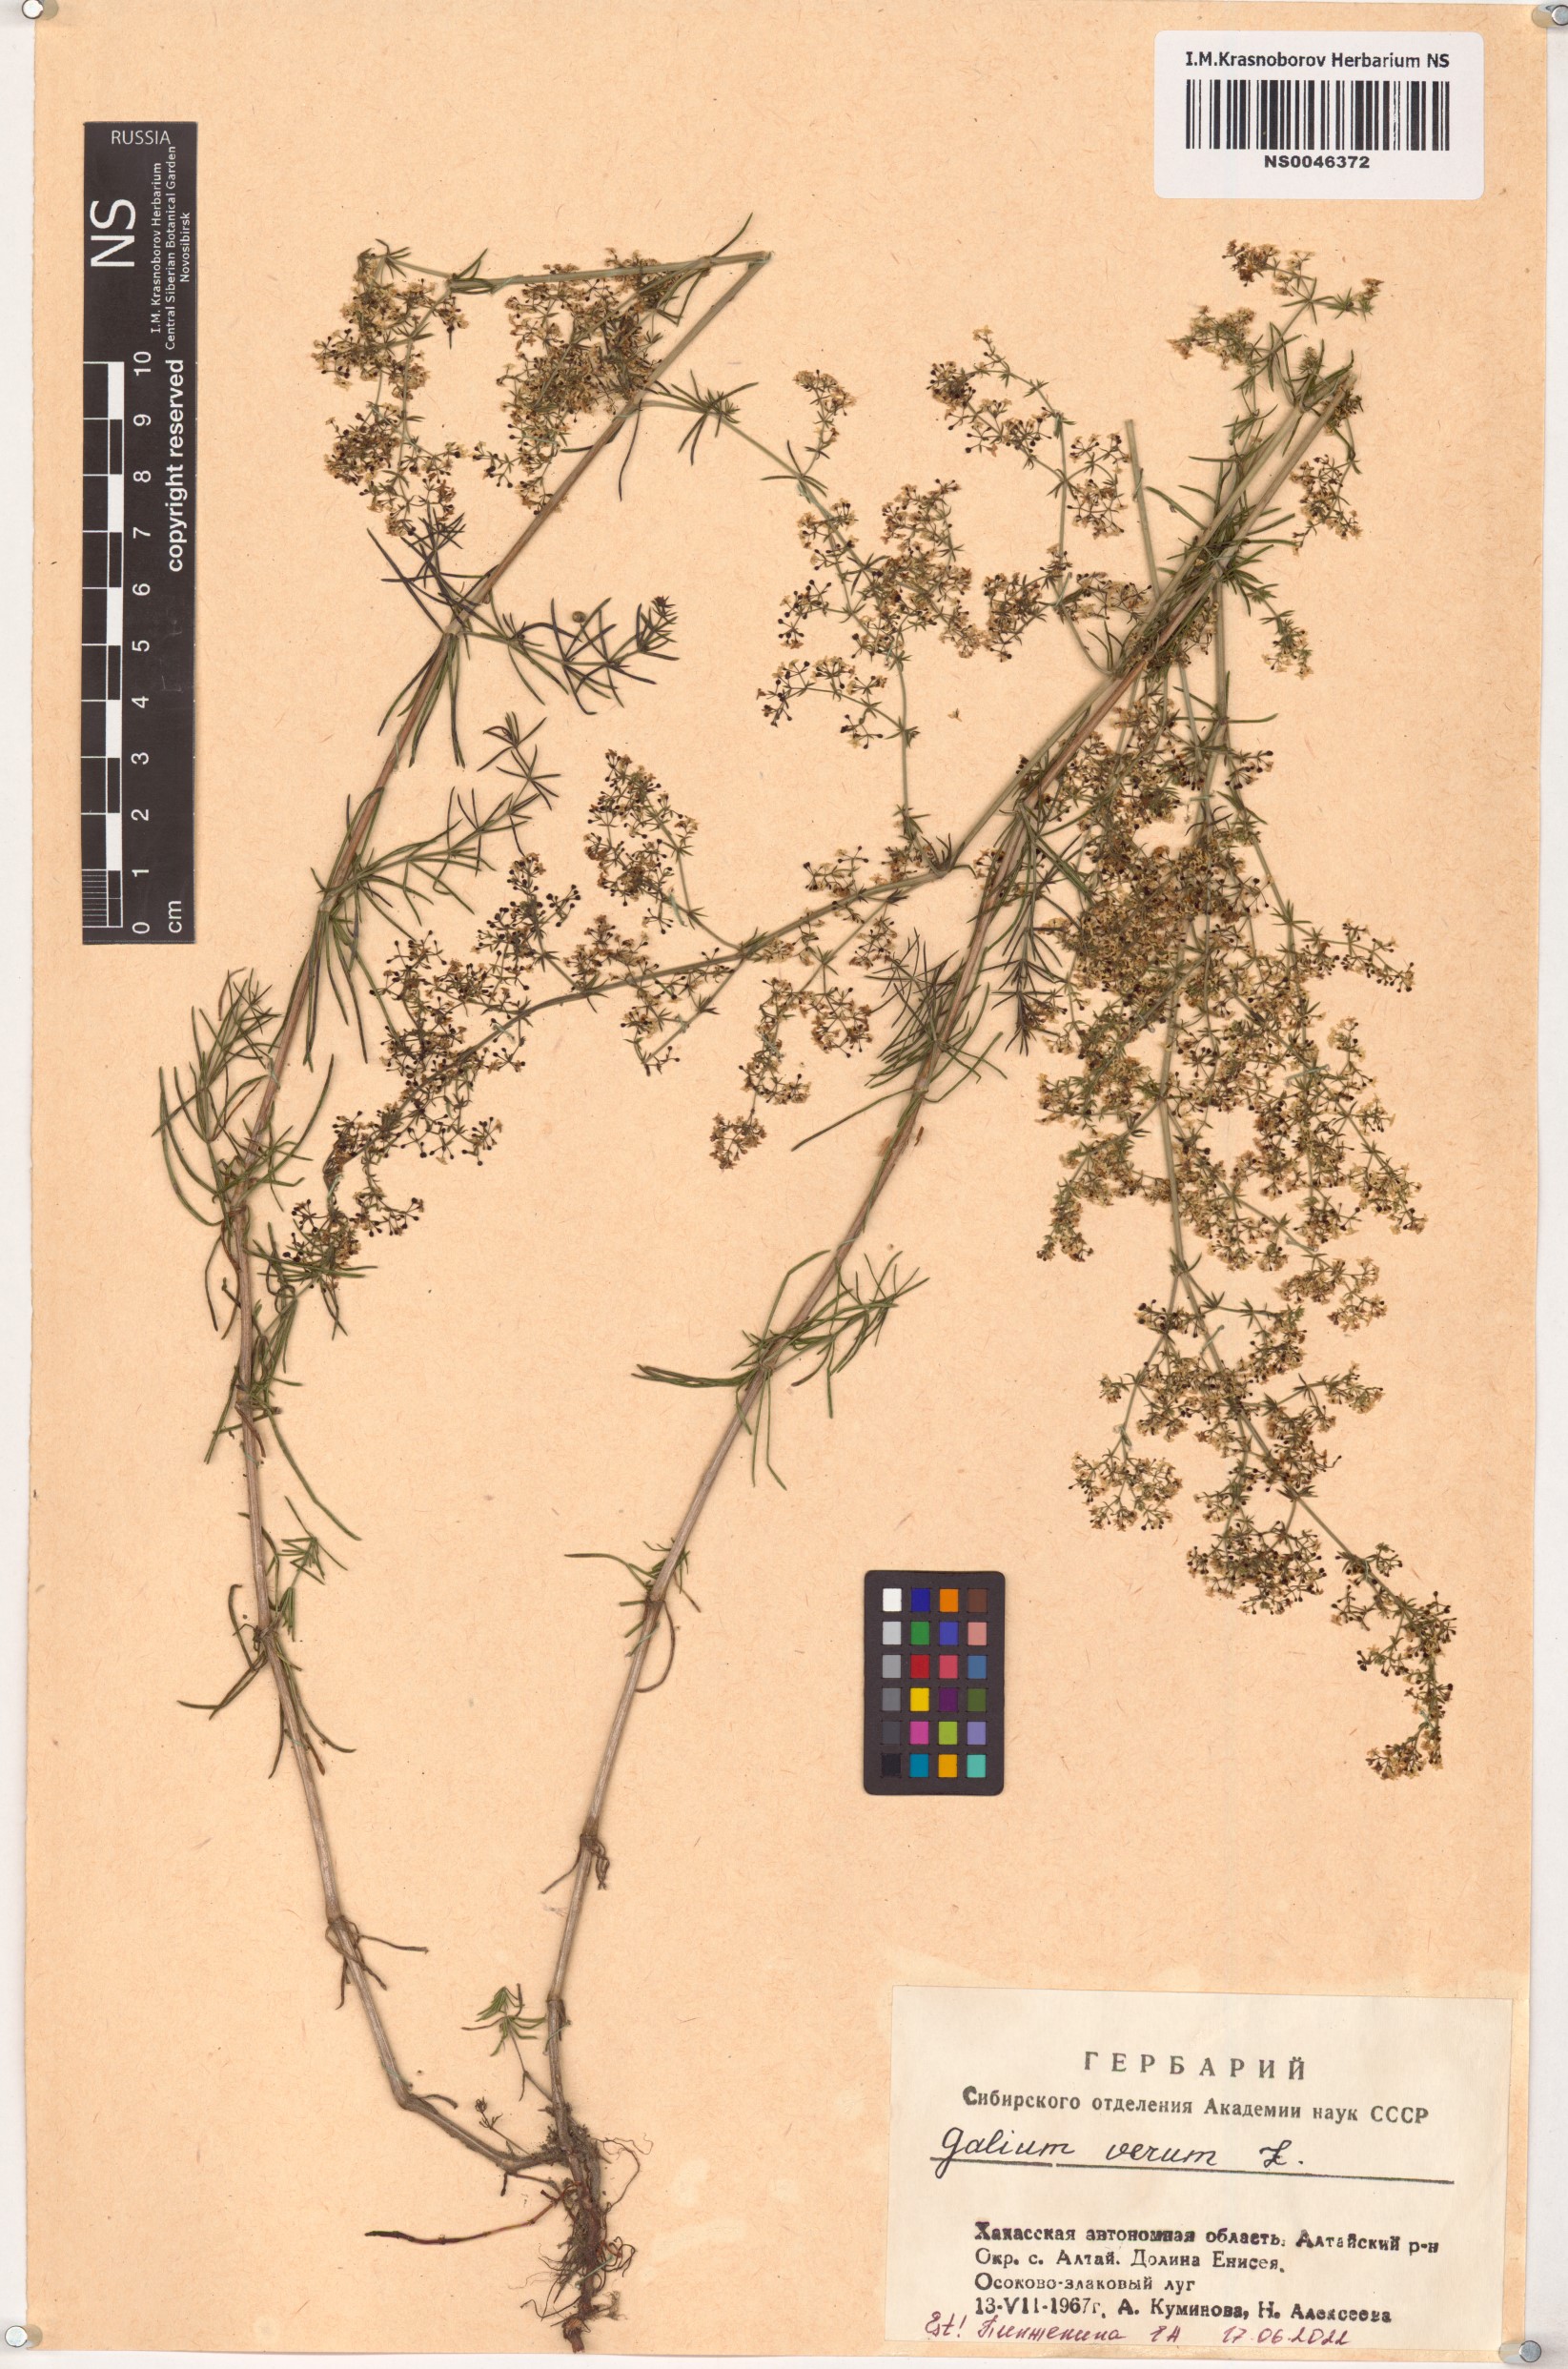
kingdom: Plantae
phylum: Tracheophyta
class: Magnoliopsida
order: Gentianales
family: Rubiaceae
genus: Galium
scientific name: Galium verum
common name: Lady's bedstraw
